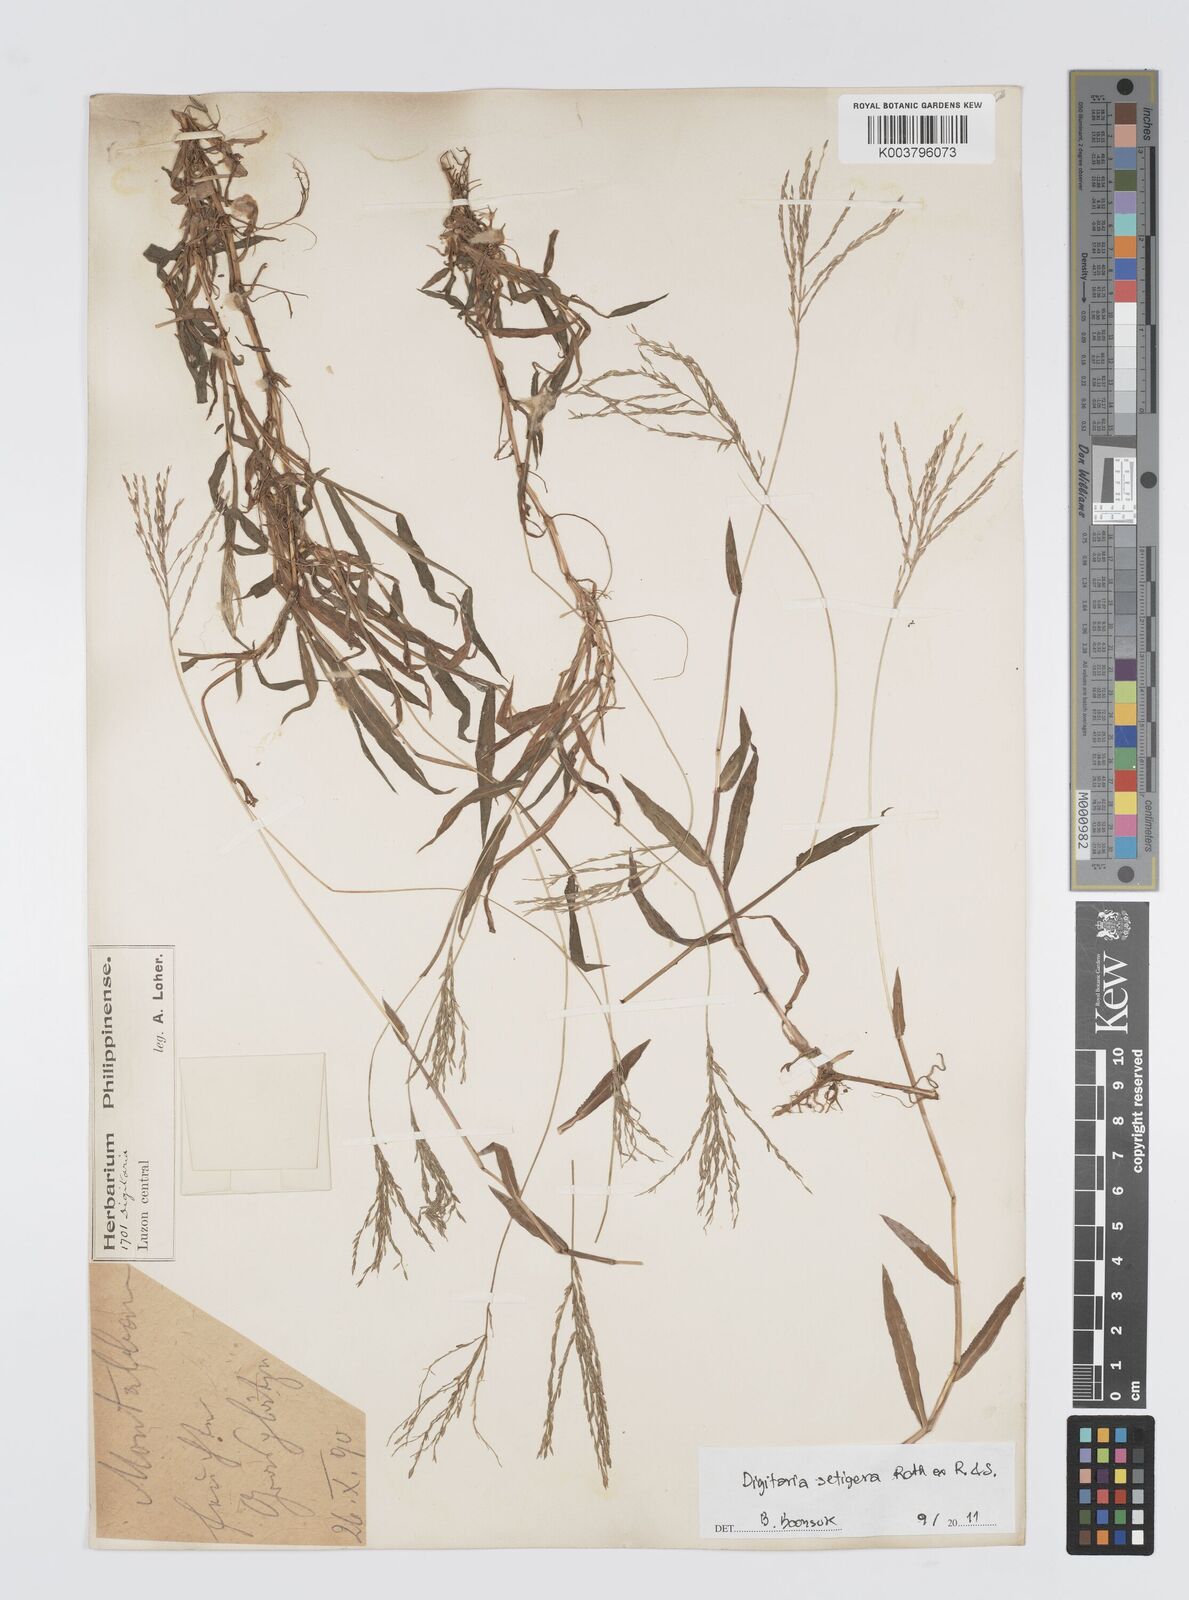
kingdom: Plantae
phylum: Tracheophyta
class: Liliopsida
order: Poales
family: Poaceae
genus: Digitaria
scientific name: Digitaria setigera
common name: East indian crabgrass
